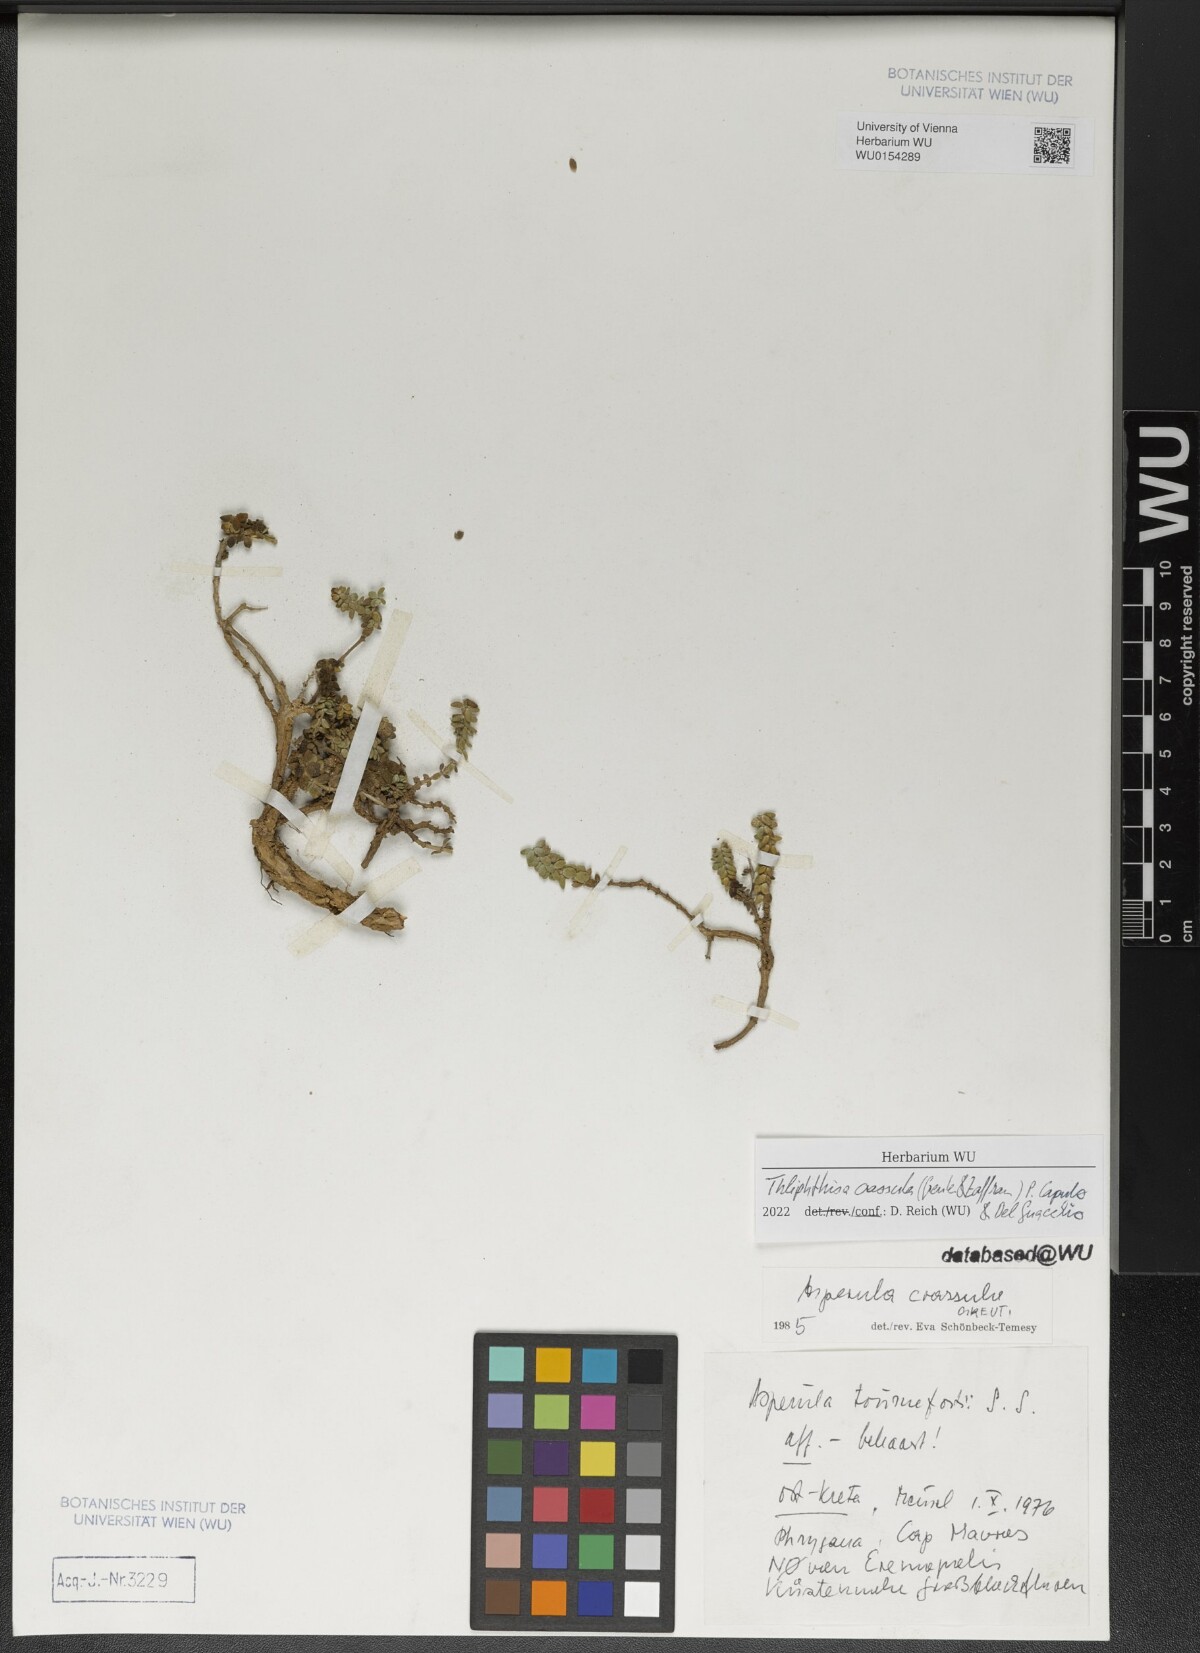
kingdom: Plantae
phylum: Tracheophyta
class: Magnoliopsida
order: Gentianales
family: Rubiaceae
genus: Thliphthisa
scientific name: Thliphthisa crassula
